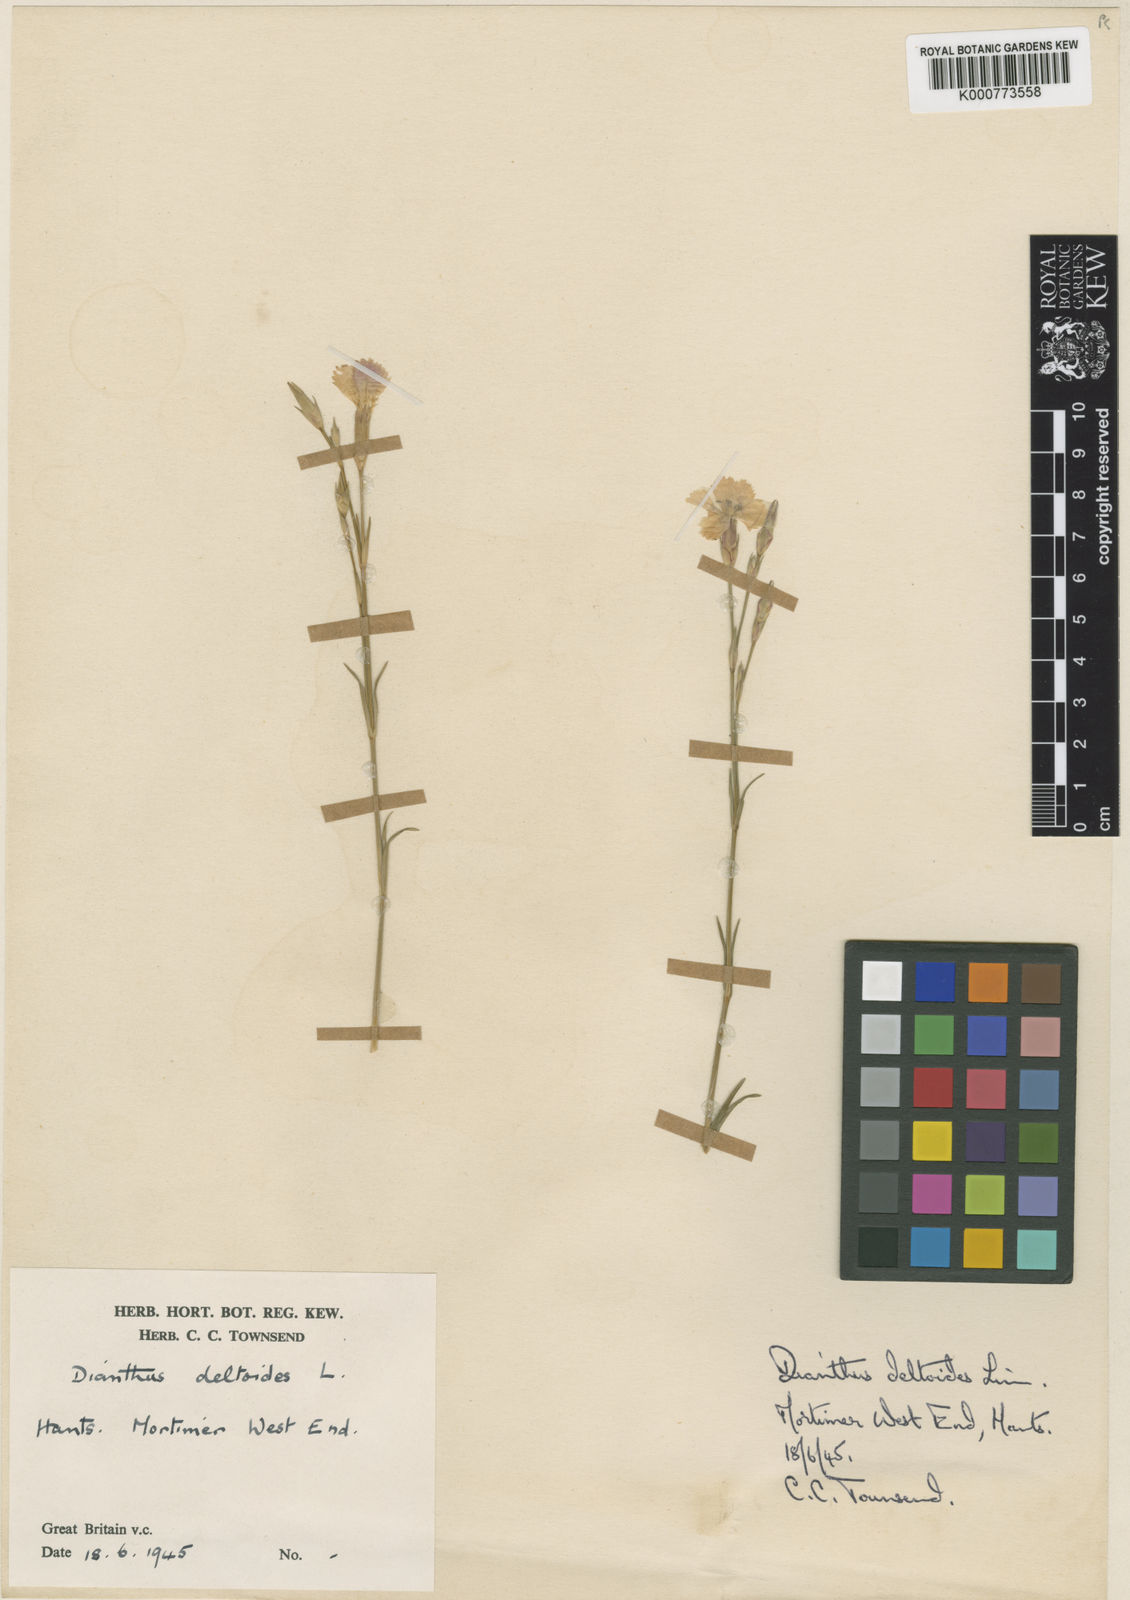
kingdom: Plantae
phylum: Tracheophyta
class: Magnoliopsida
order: Caryophyllales
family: Caryophyllaceae
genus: Dianthus
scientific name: Dianthus deltoides
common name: Maiden pink
